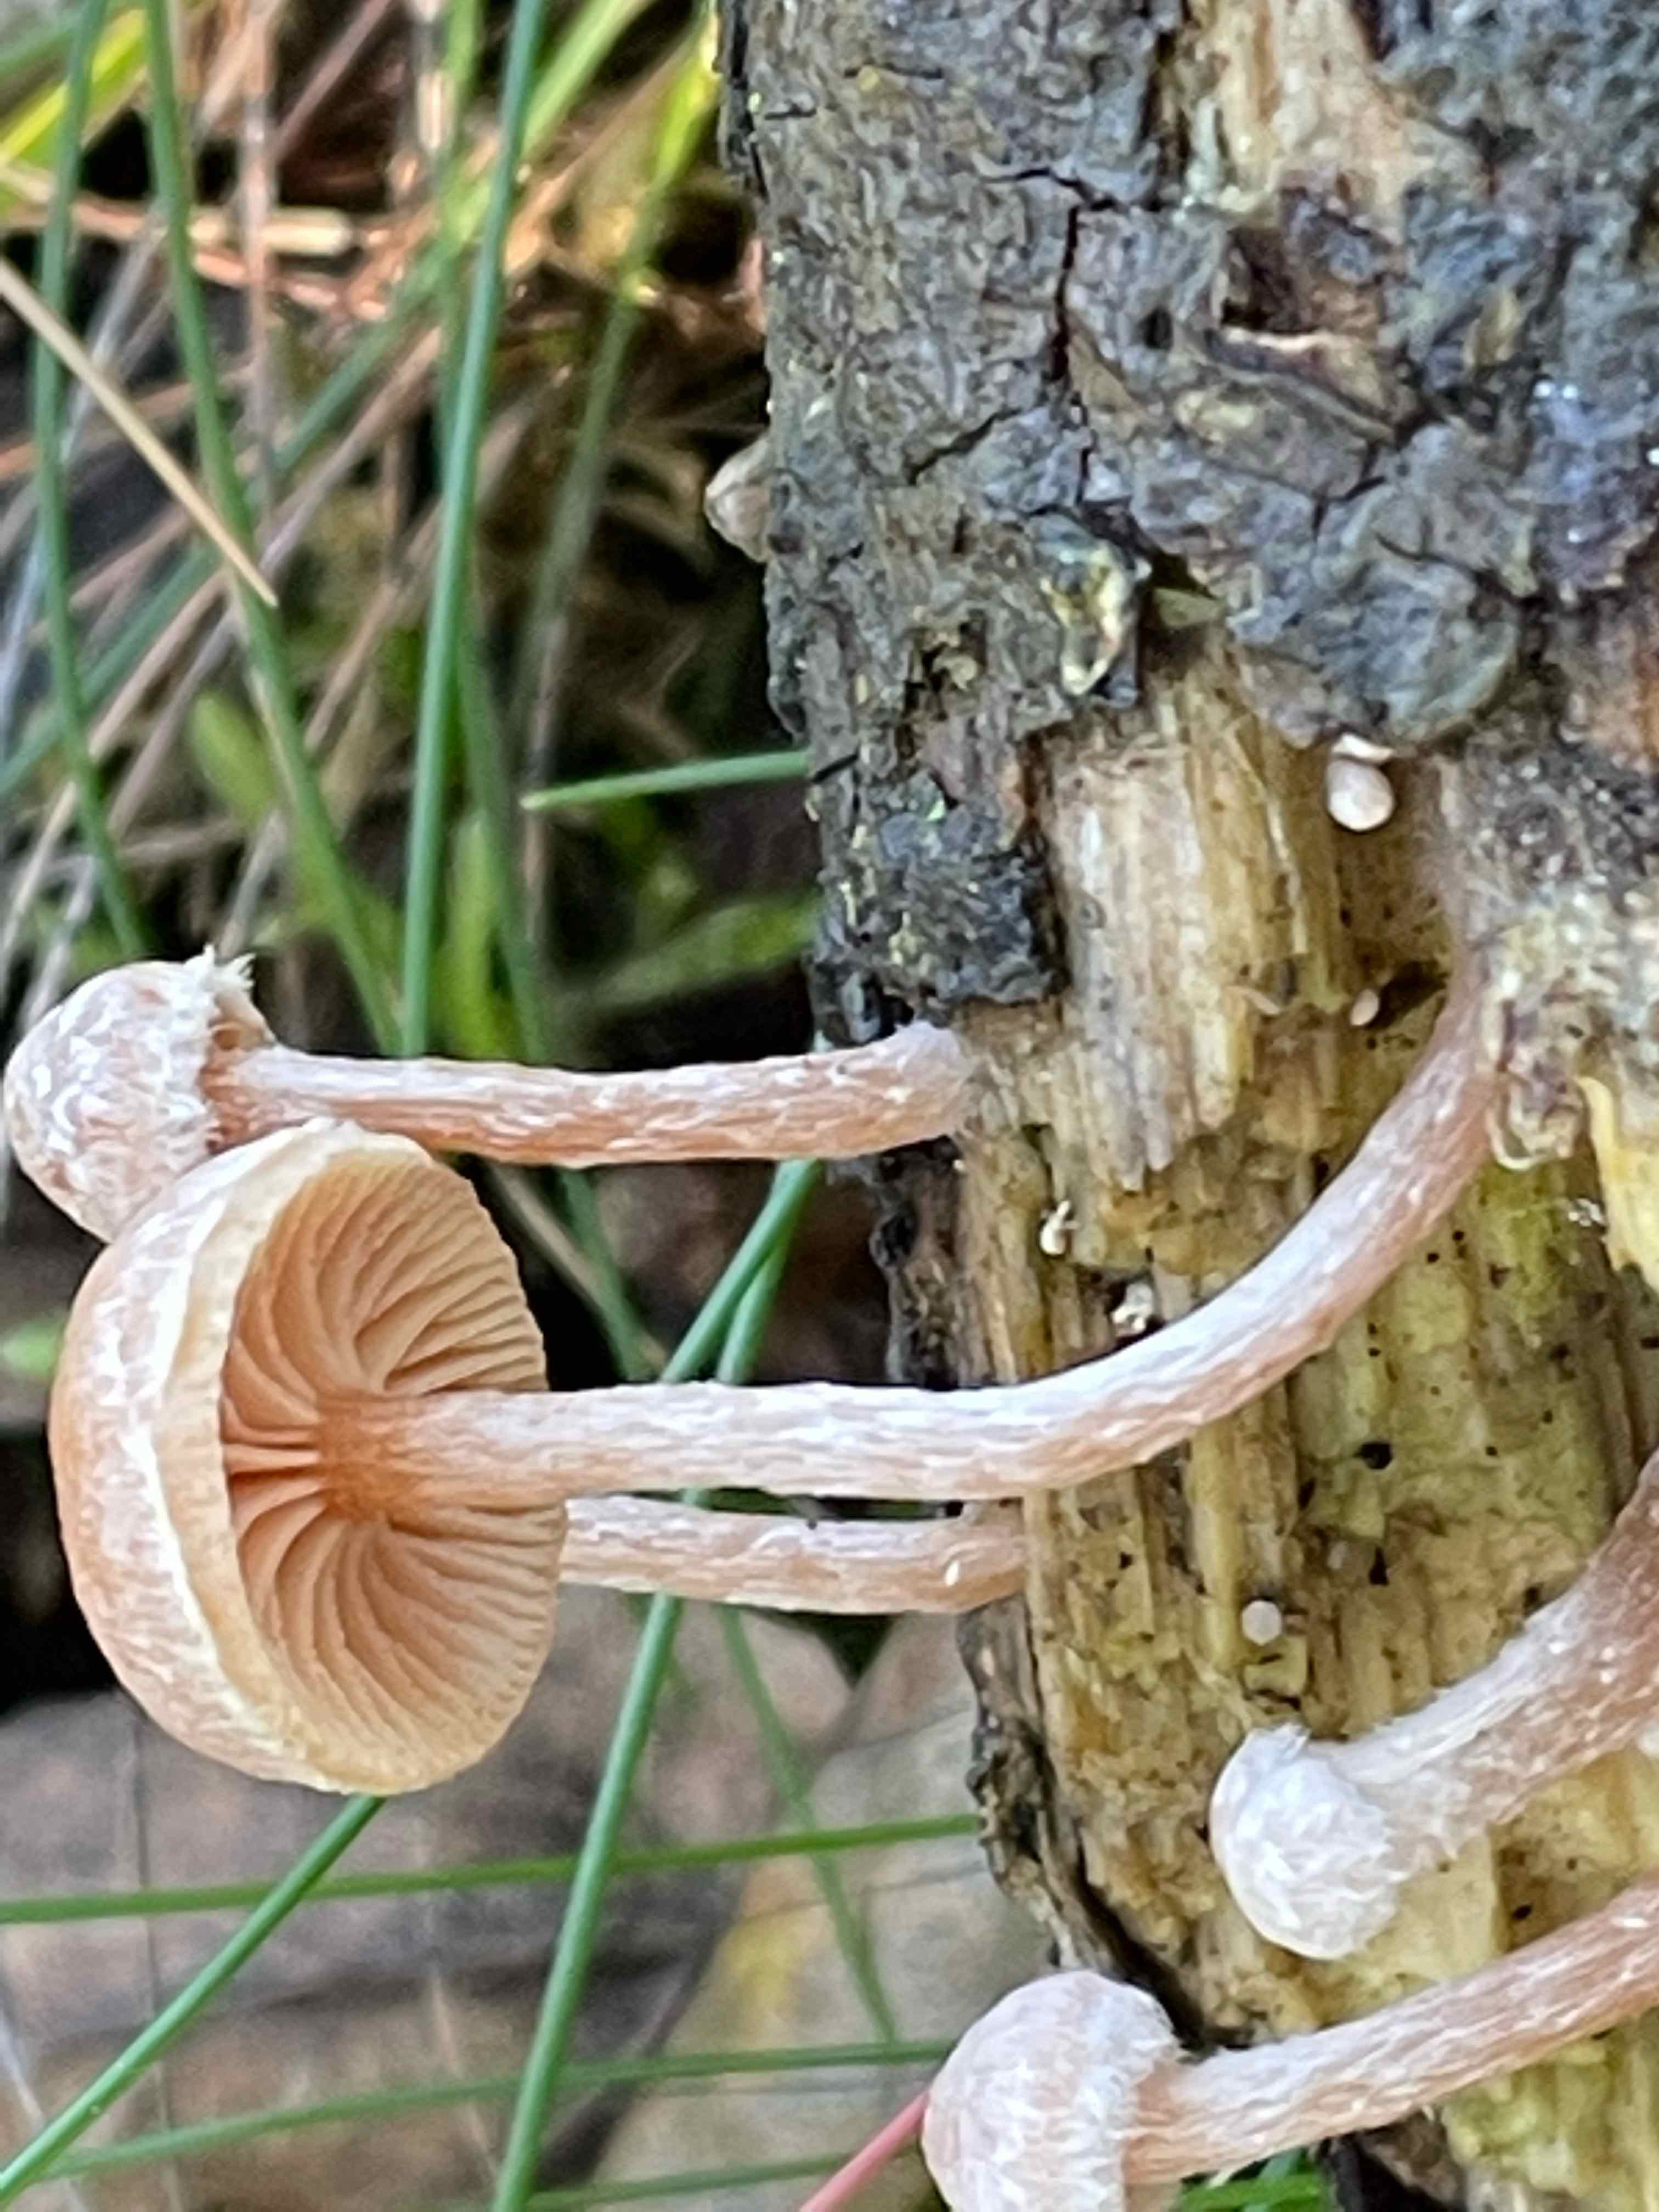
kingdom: Fungi
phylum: Basidiomycota
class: Agaricomycetes
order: Agaricales
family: Tubariaceae
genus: Tubaria
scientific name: Tubaria conspersa
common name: bleg fnughat
